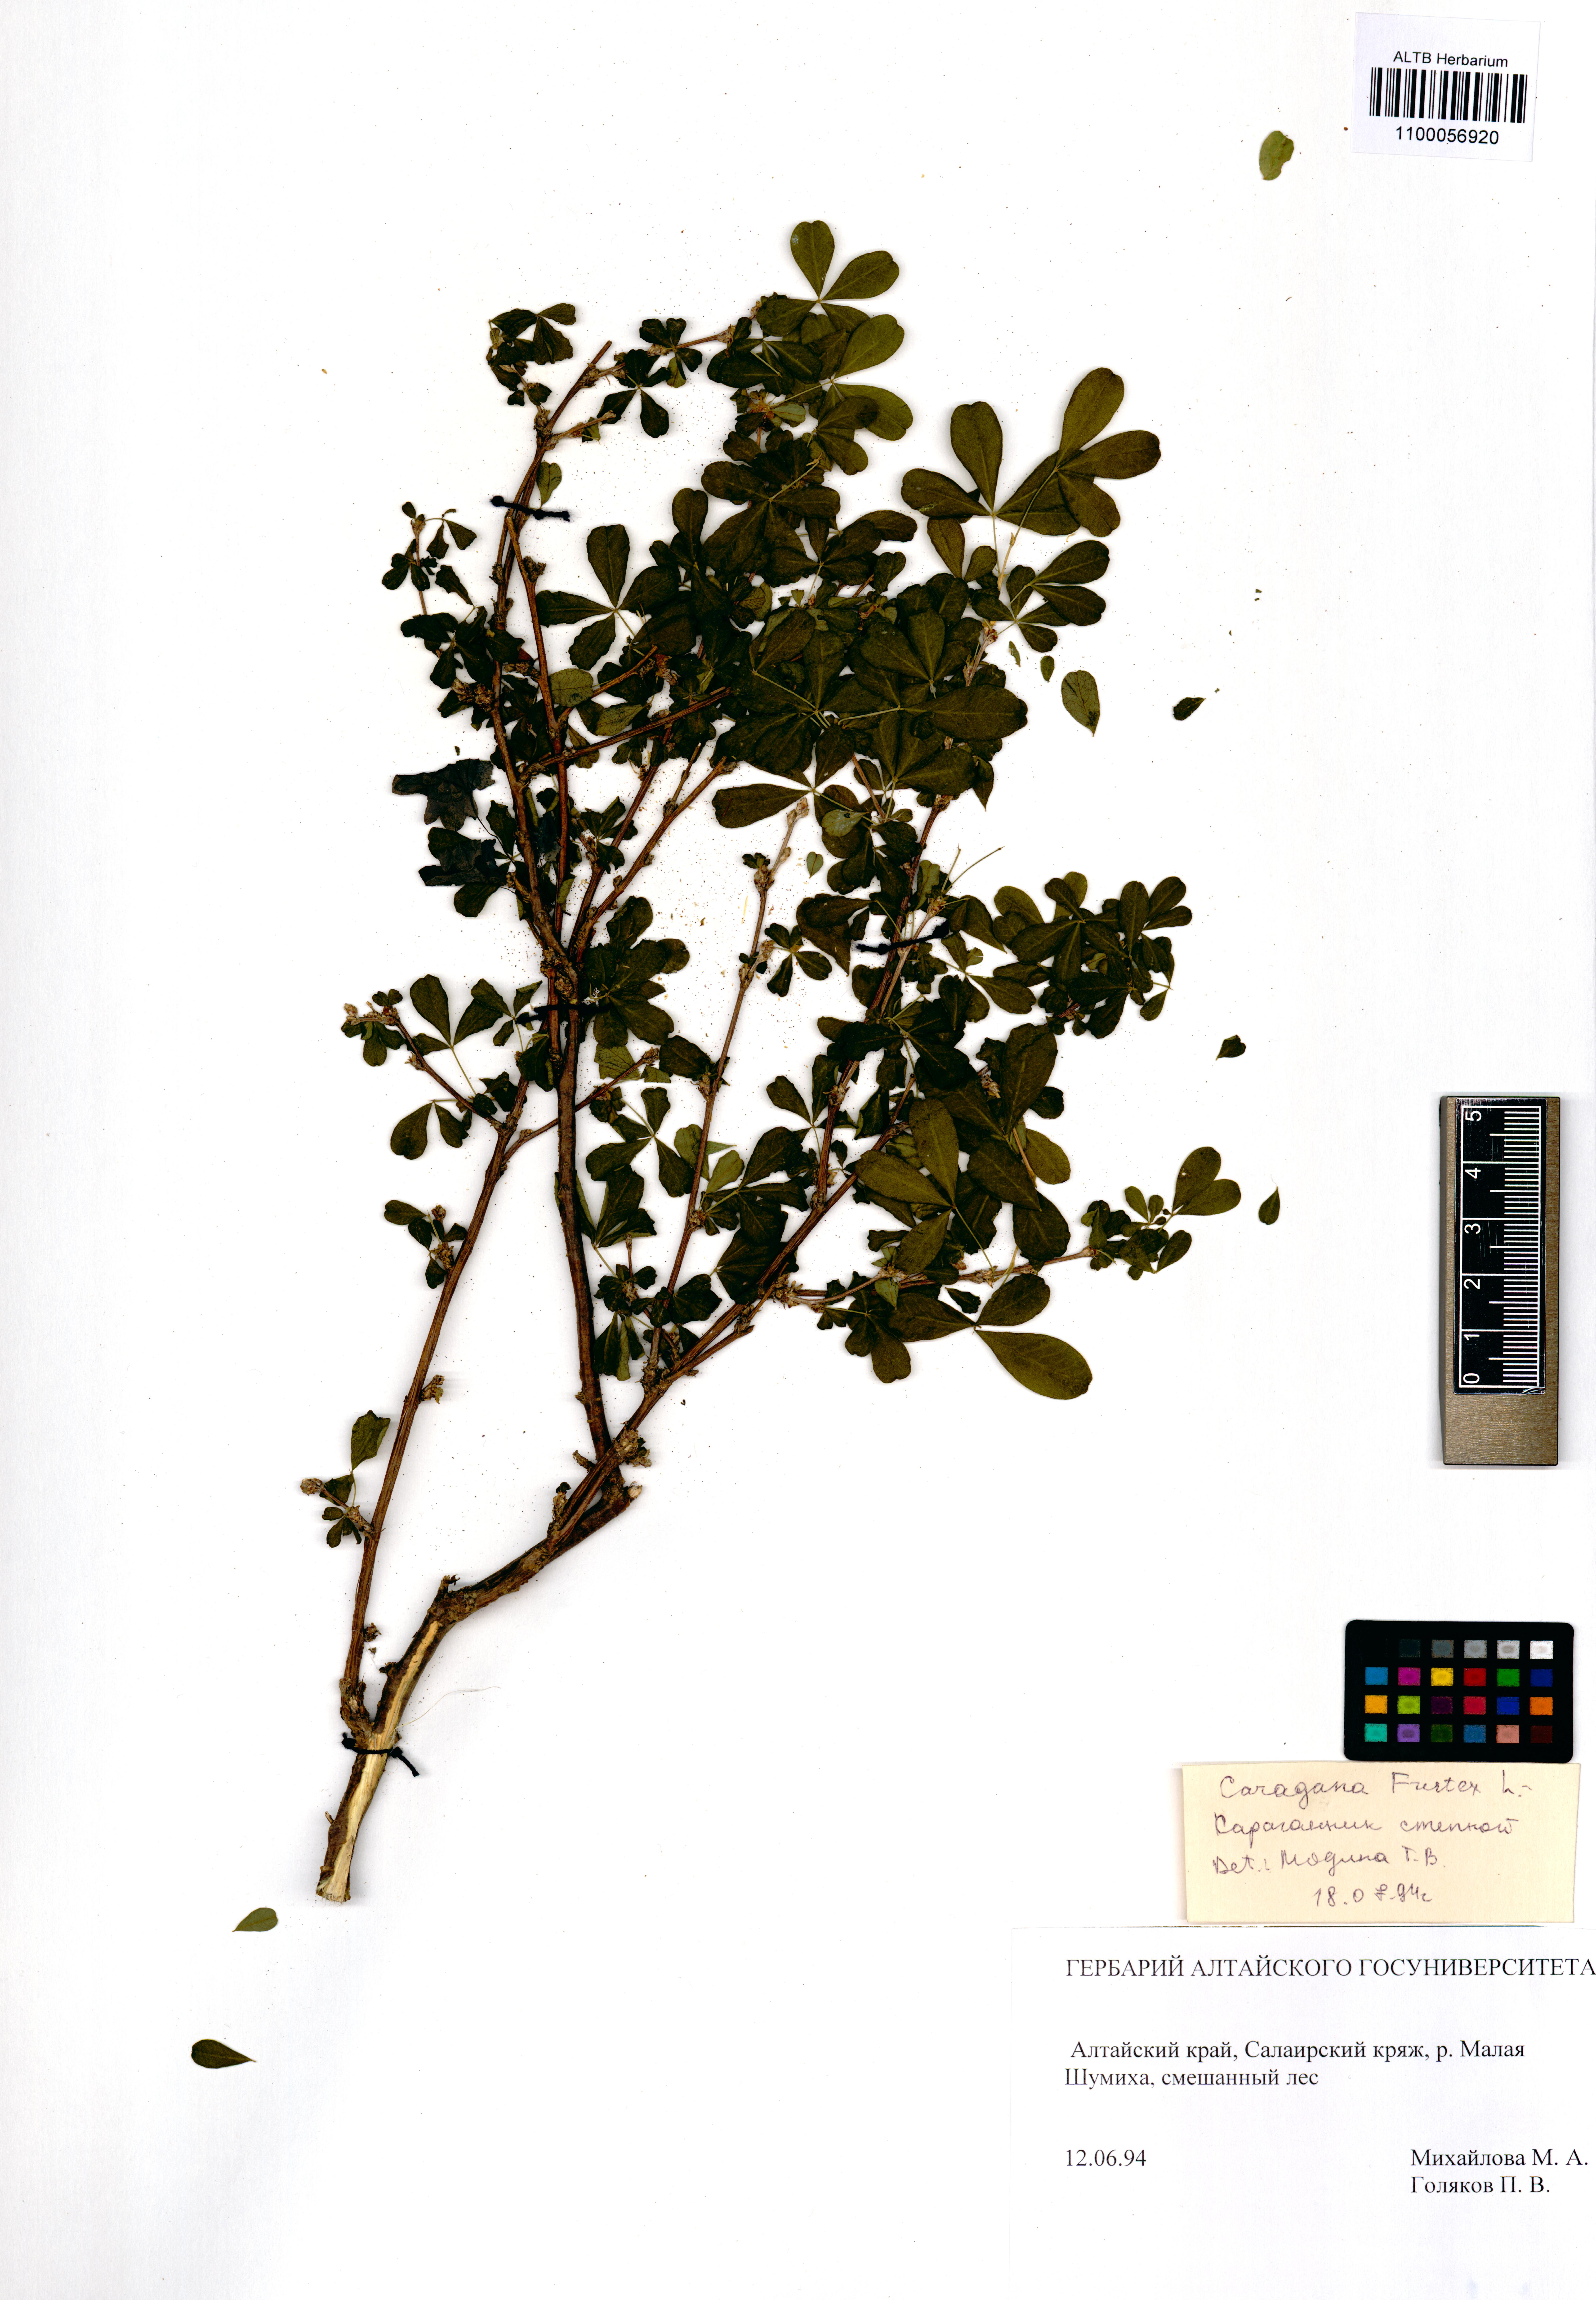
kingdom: Plantae
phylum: Tracheophyta
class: Magnoliopsida
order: Fabales
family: Fabaceae
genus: Caragana
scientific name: Caragana frutex
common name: Russian peashrub
